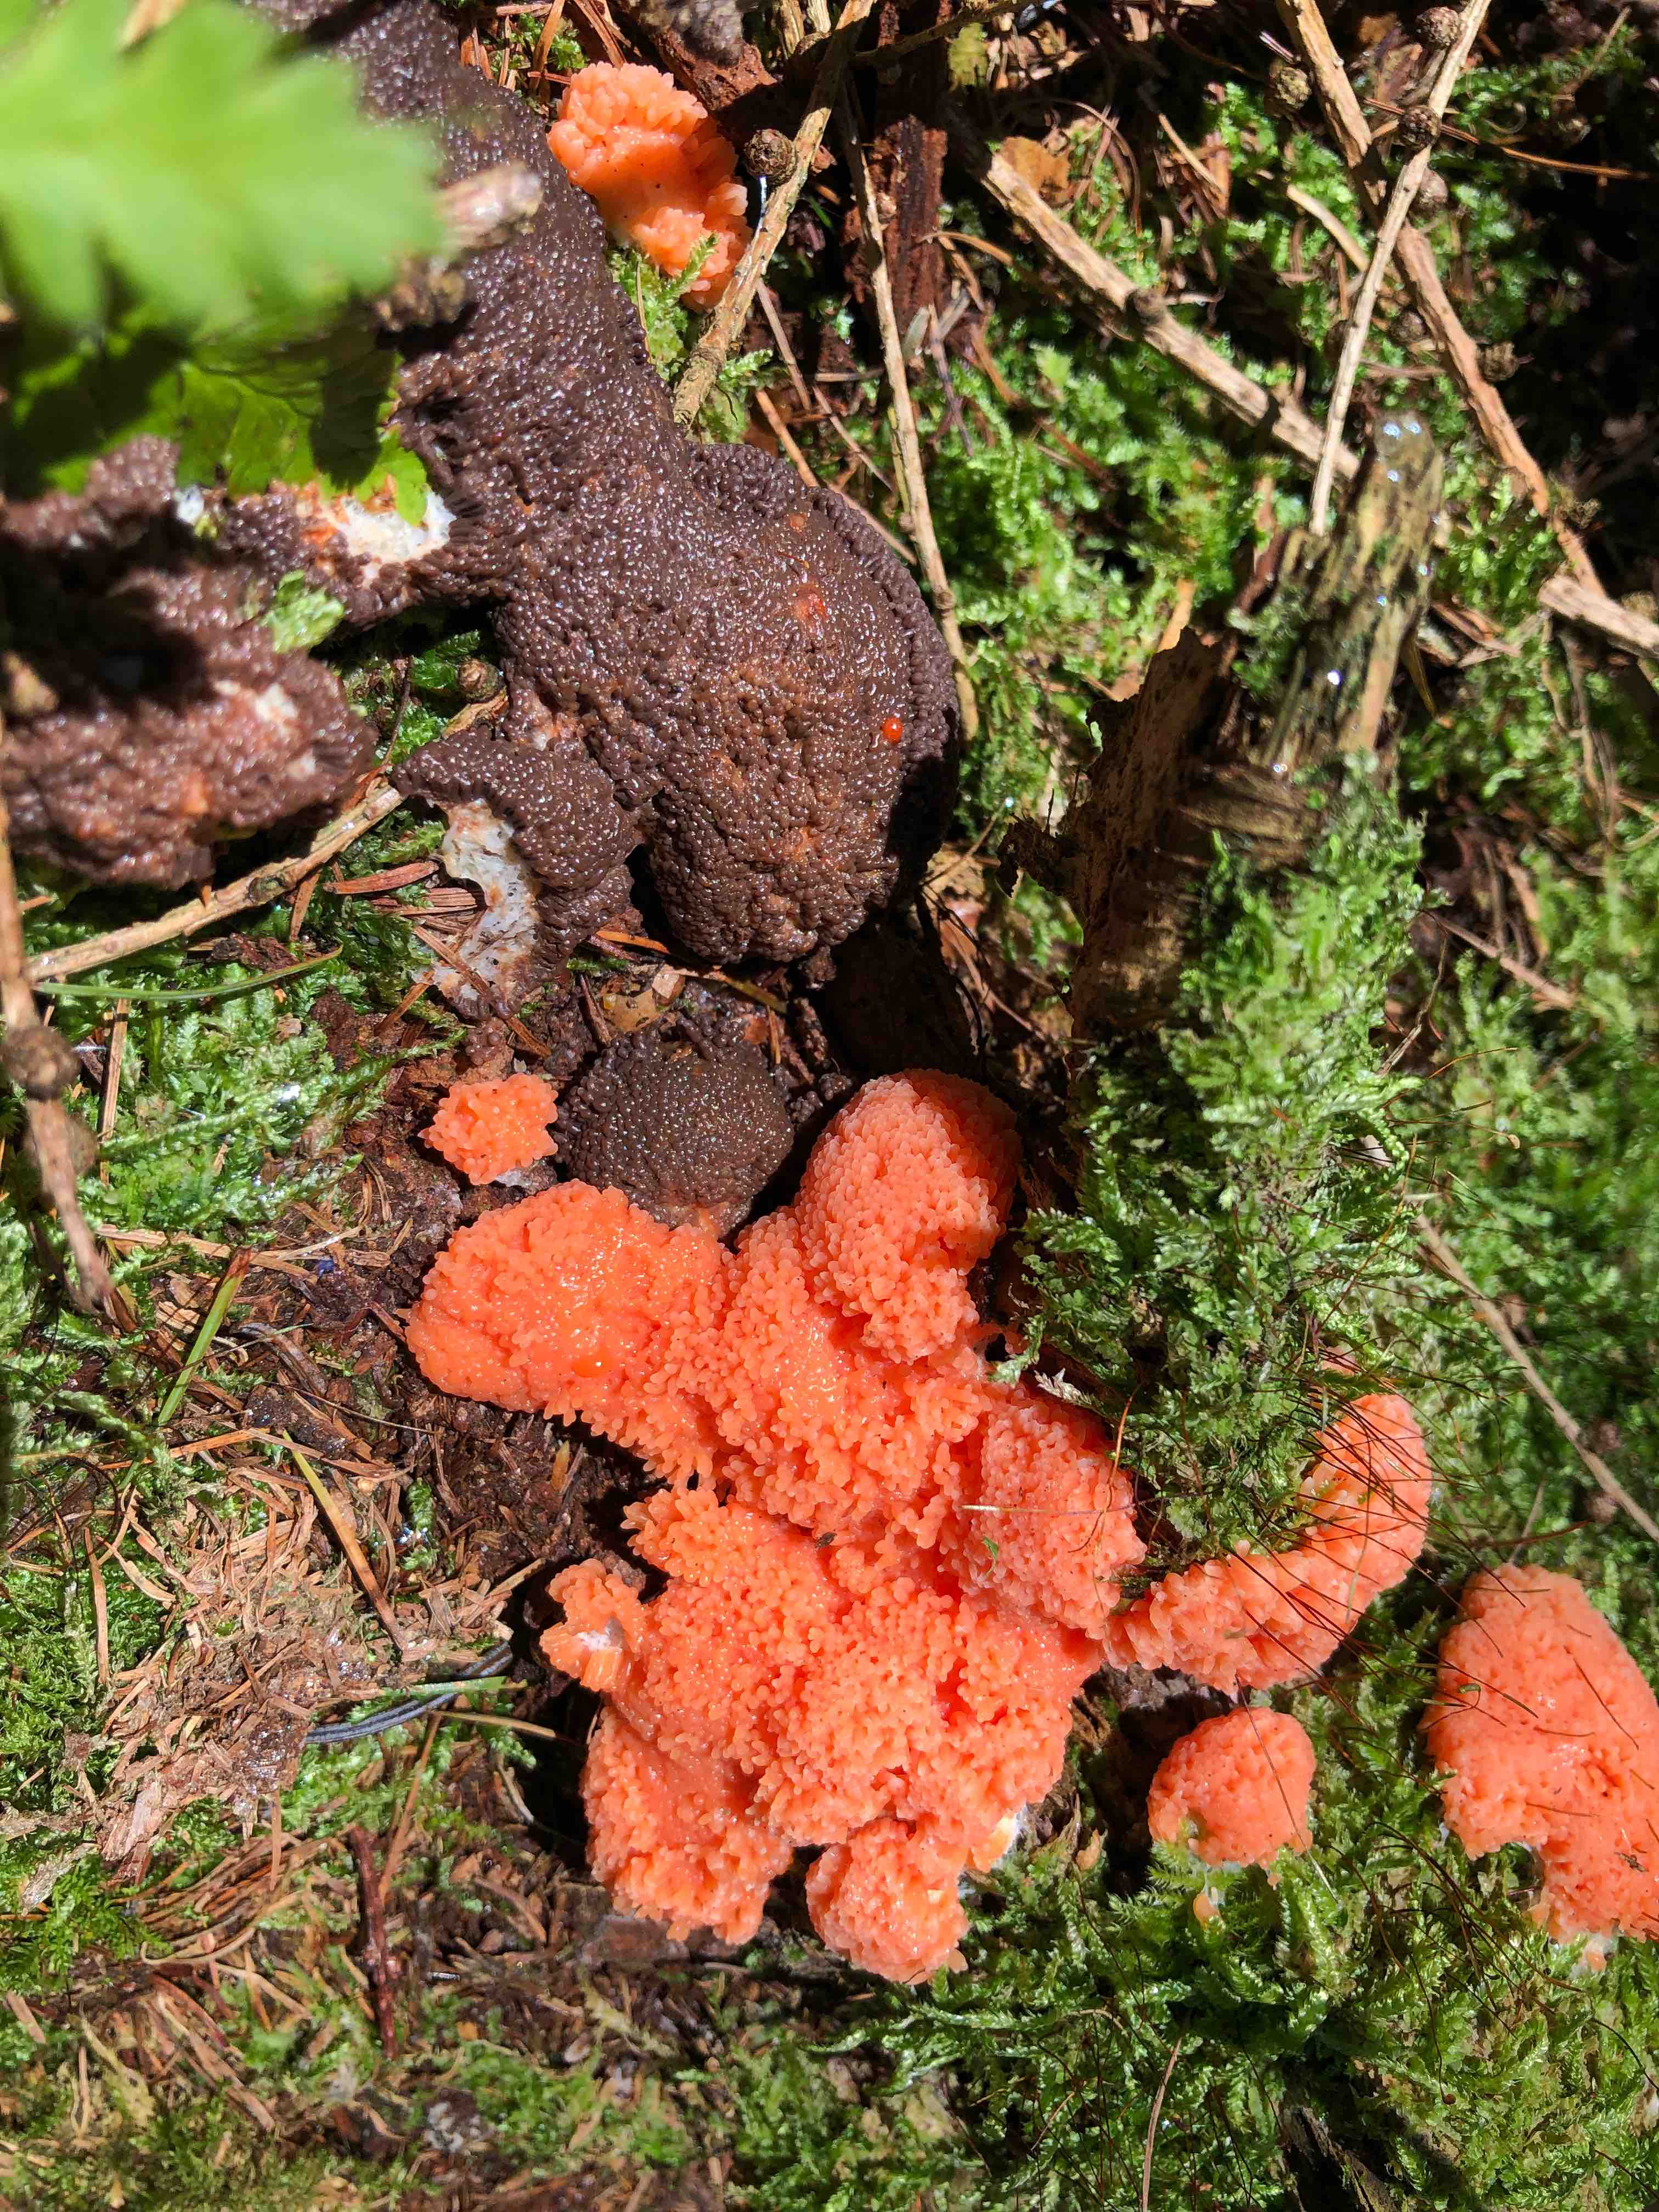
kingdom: Protozoa
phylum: Mycetozoa
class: Myxomycetes
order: Cribrariales
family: Tubiferaceae
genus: Tubifera
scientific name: Tubifera ferruginosa
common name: kanel-støvrør
